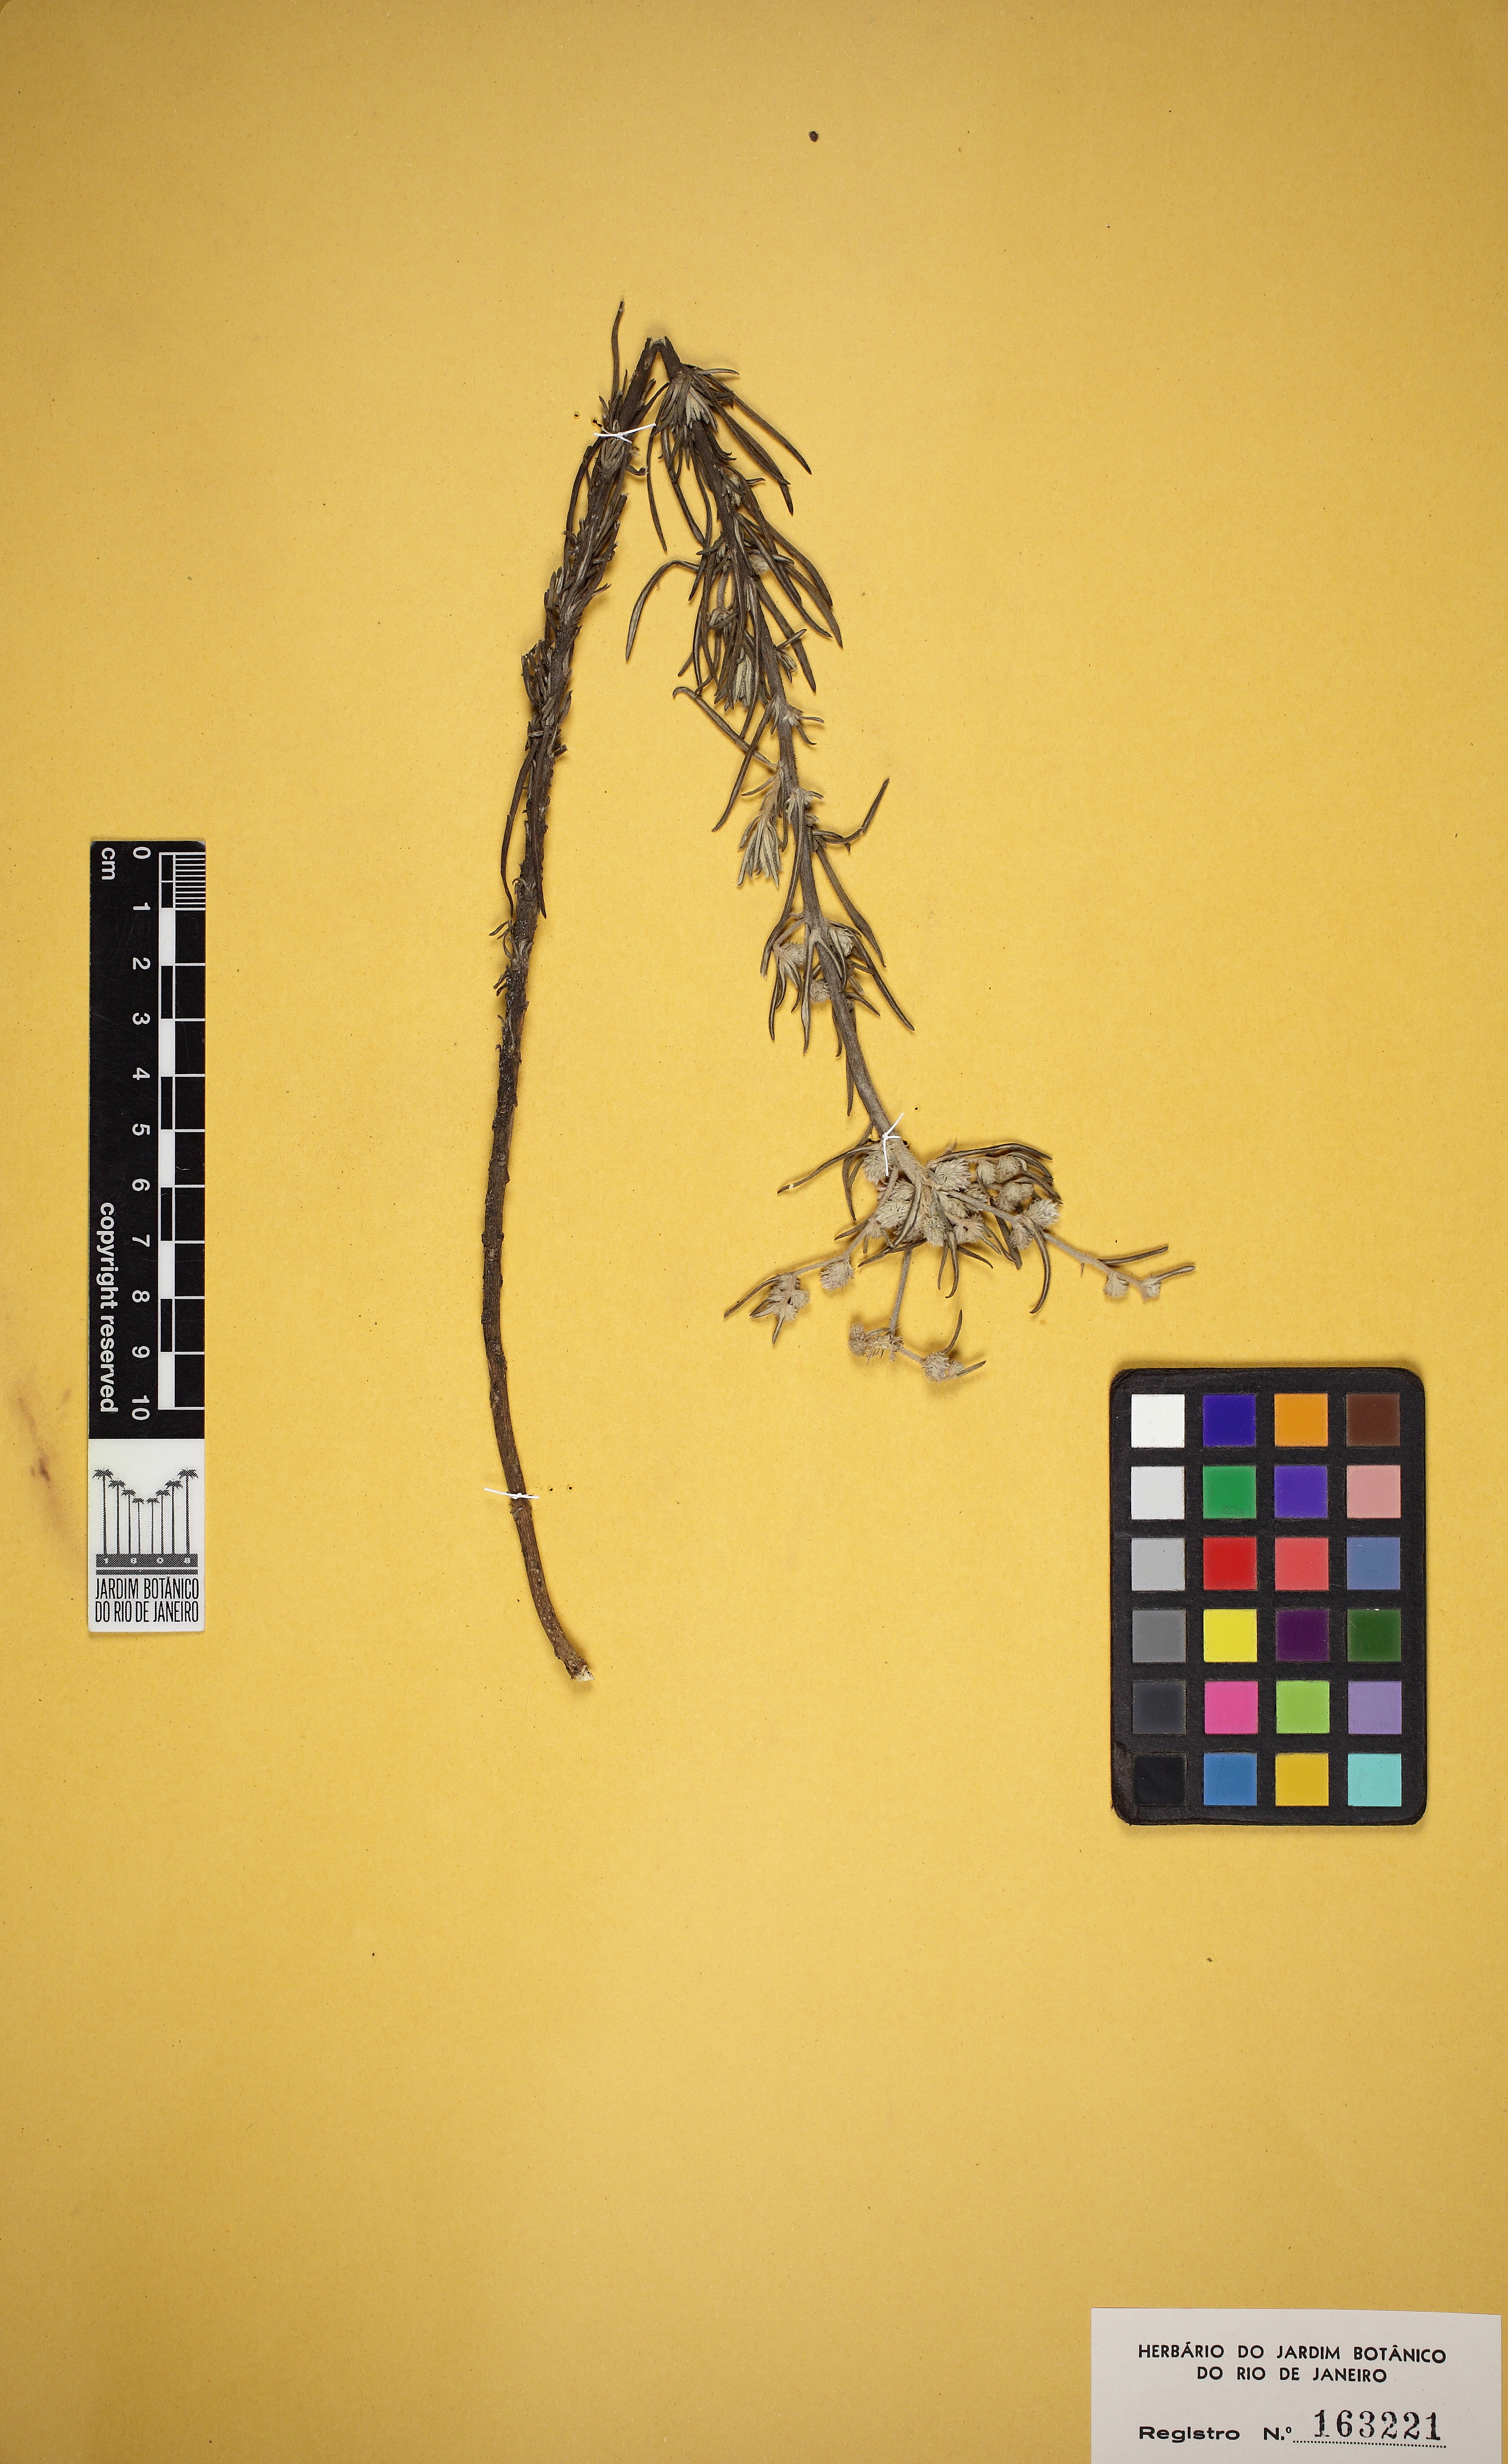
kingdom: Plantae
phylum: Tracheophyta
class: Magnoliopsida
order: Asterales
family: Asteraceae
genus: Lepidaploa
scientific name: Lepidaploa gnaphalioides
